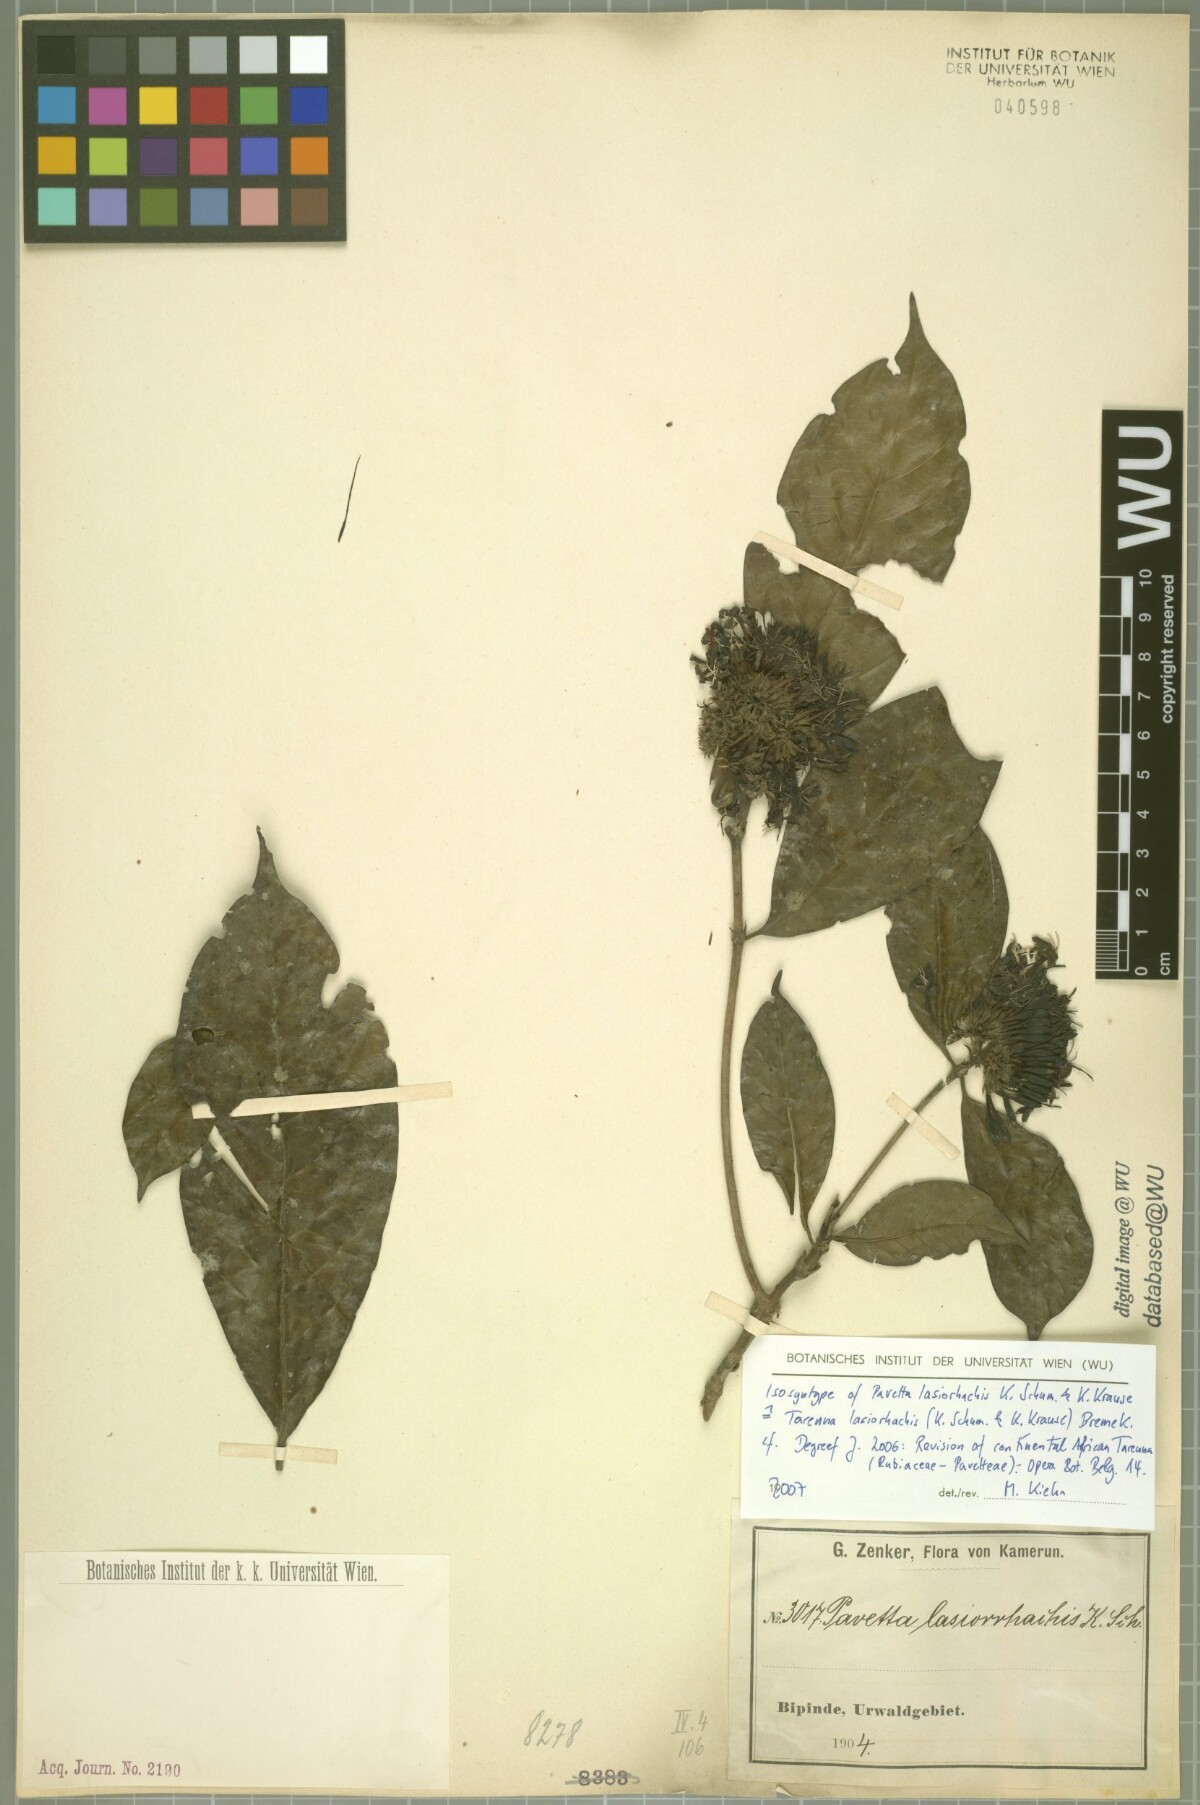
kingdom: Plantae
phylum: Tracheophyta
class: Magnoliopsida
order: Gentianales
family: Rubiaceae
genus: Tarenna
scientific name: Tarenna lasiorhachis
